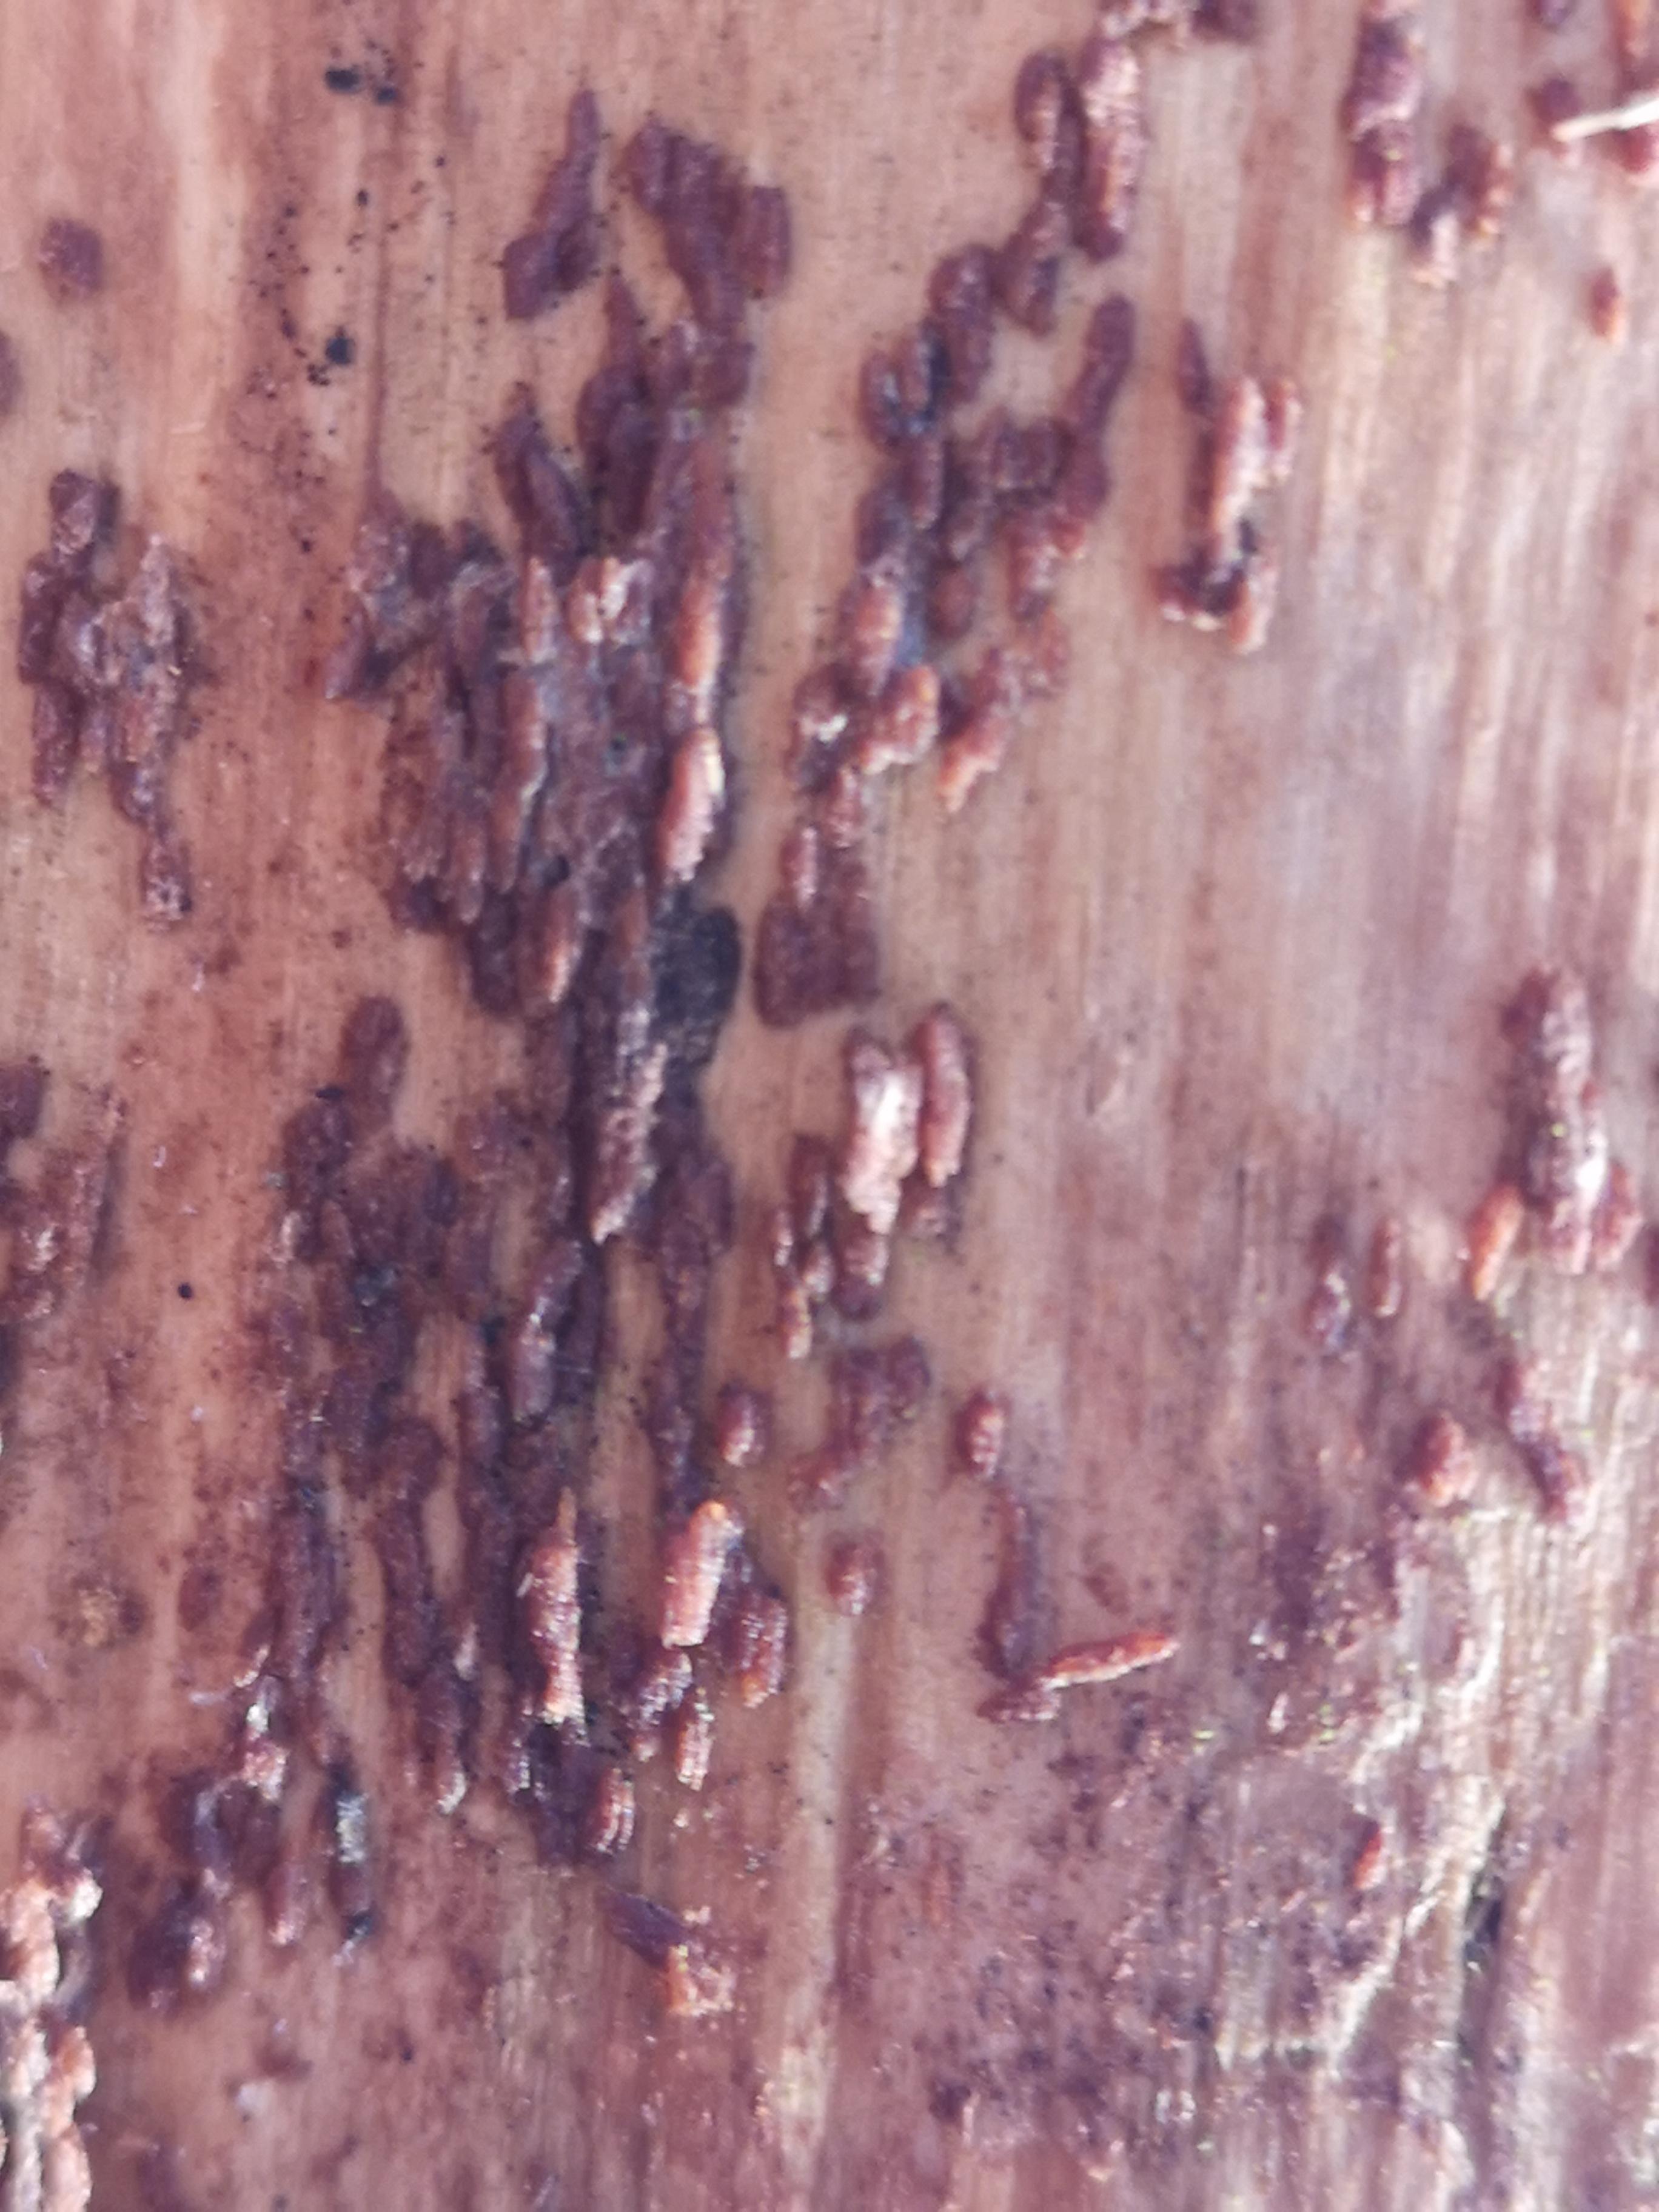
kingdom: Fungi
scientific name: Fungi
